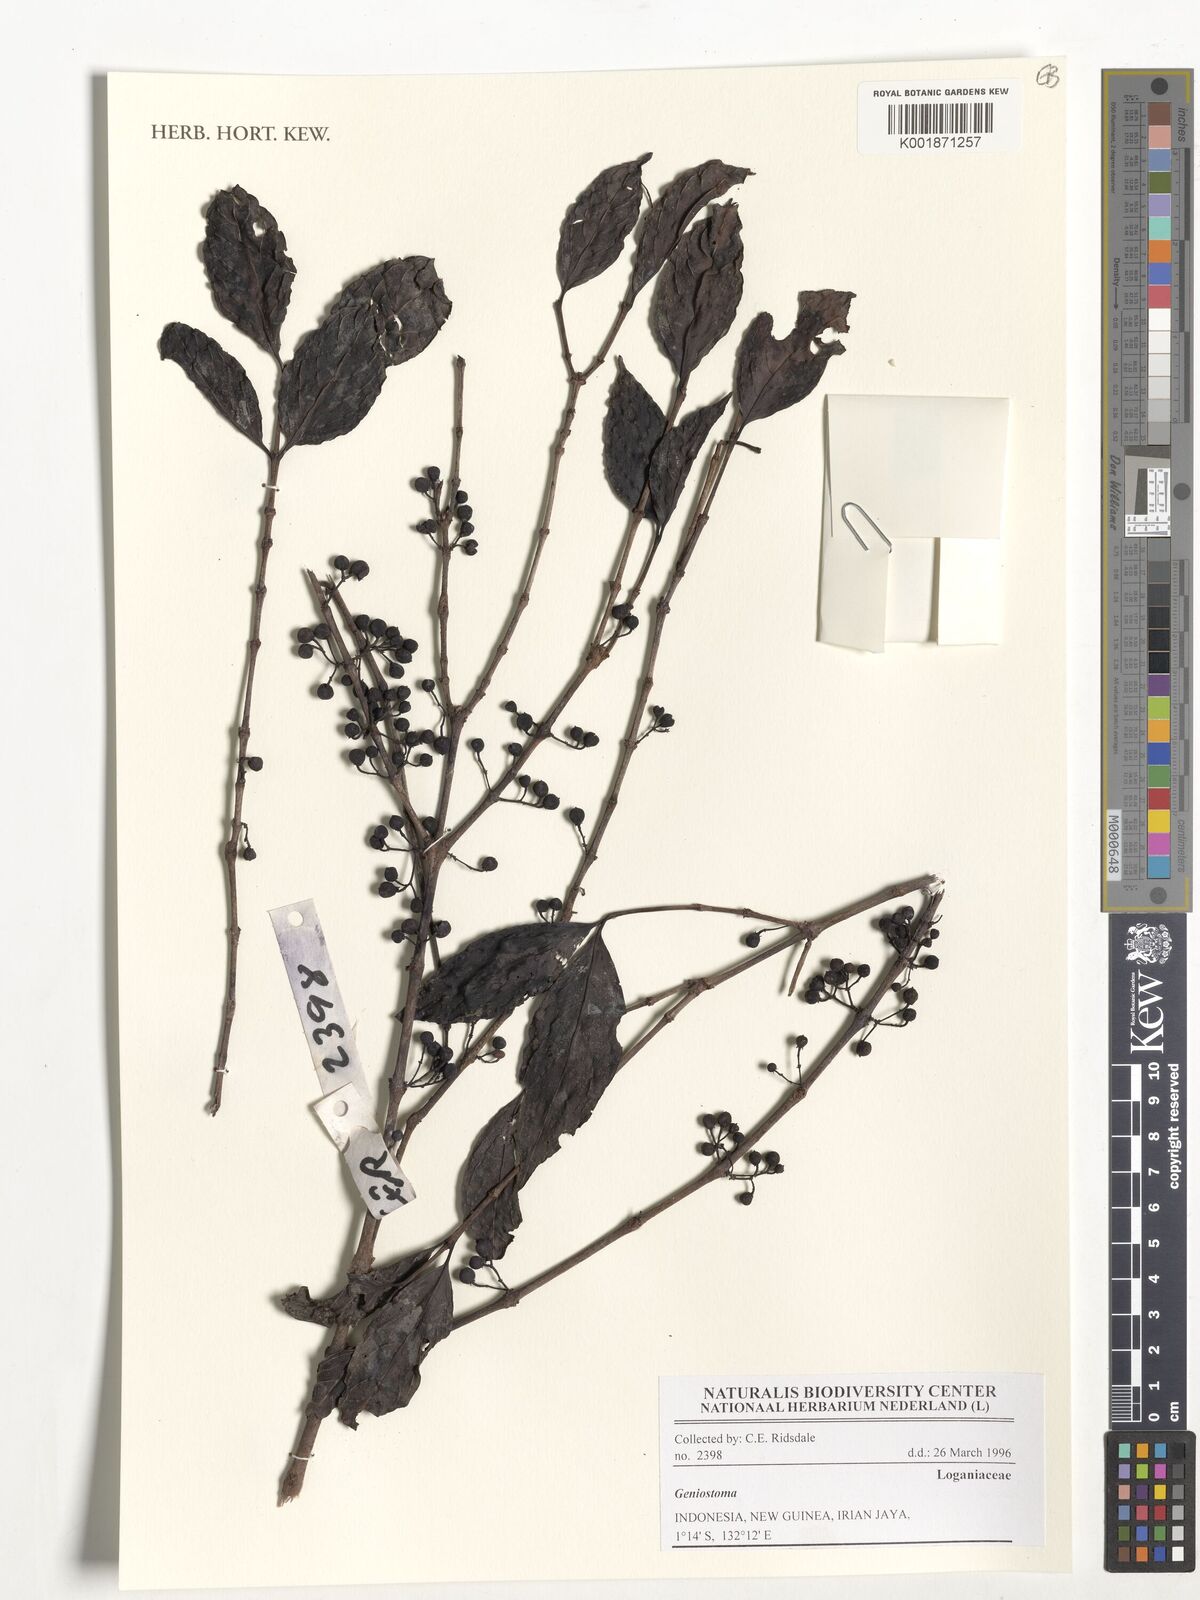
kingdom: Plantae
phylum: Tracheophyta
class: Magnoliopsida
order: Gentianales
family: Loganiaceae
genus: Geniostoma
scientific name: Geniostoma
